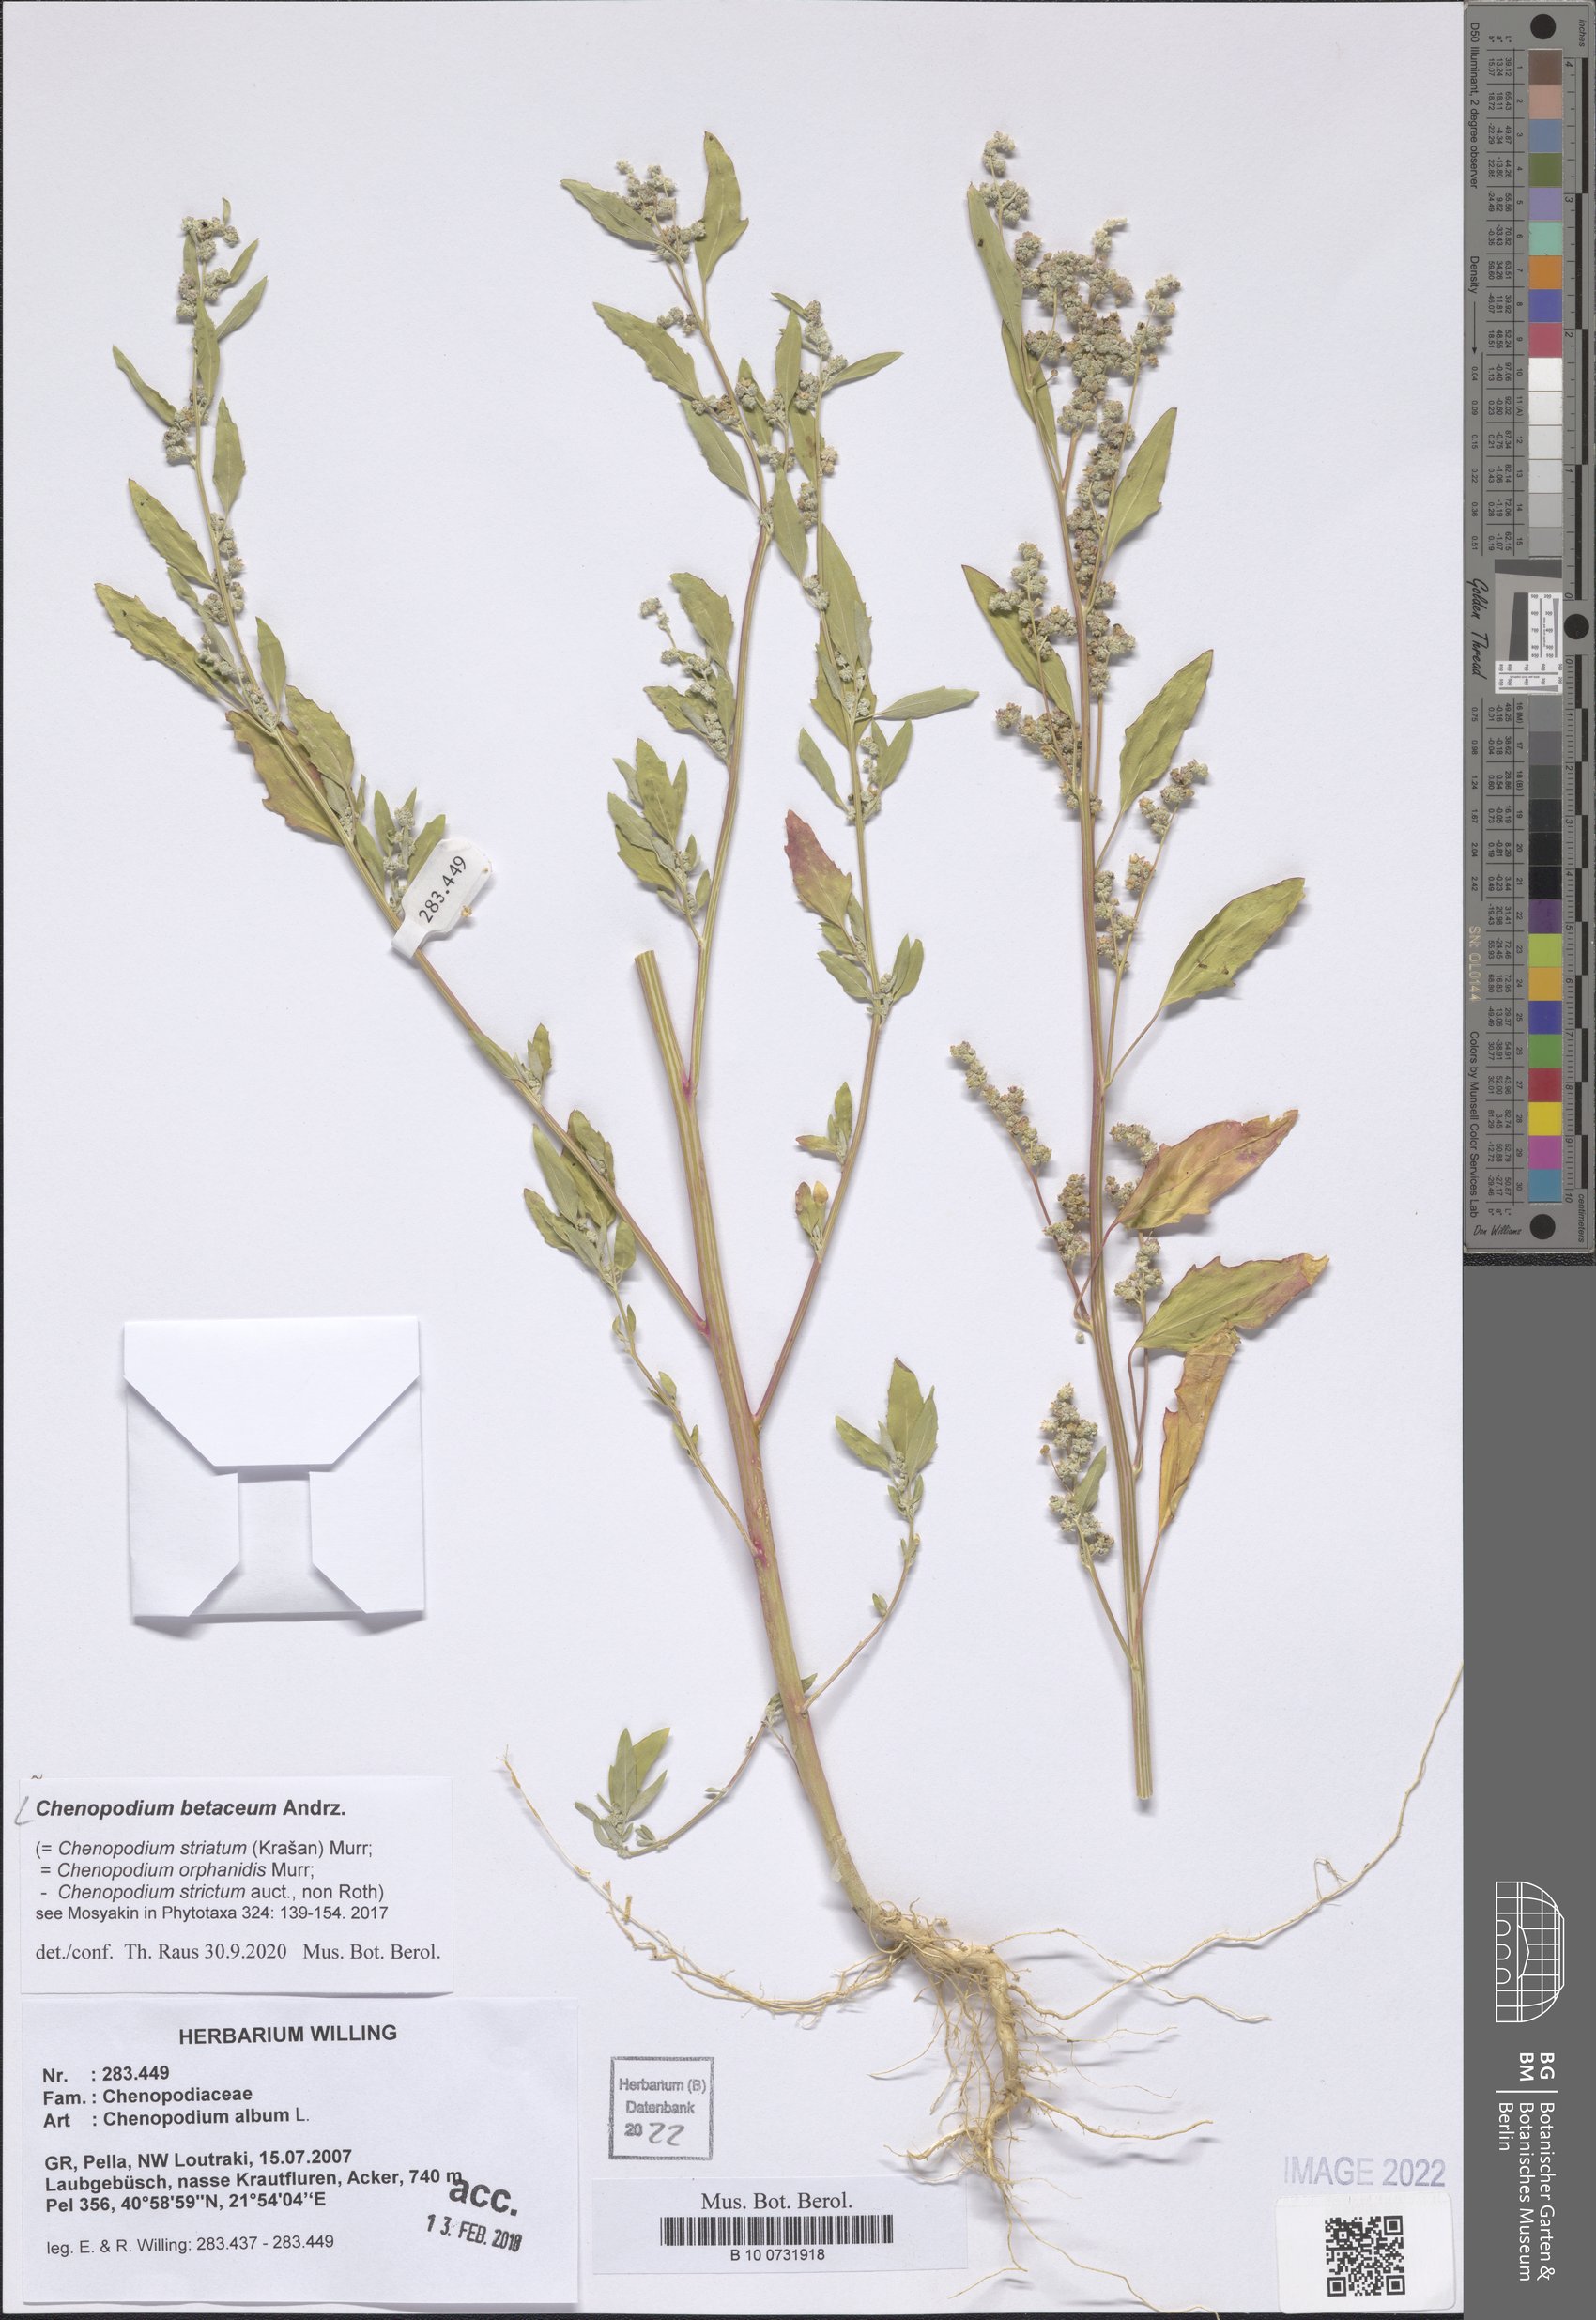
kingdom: Plantae
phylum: Tracheophyta
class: Magnoliopsida
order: Caryophyllales
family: Amaranthaceae
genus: Chenopodium
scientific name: Chenopodium betaceum
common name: Striped goosefoot
